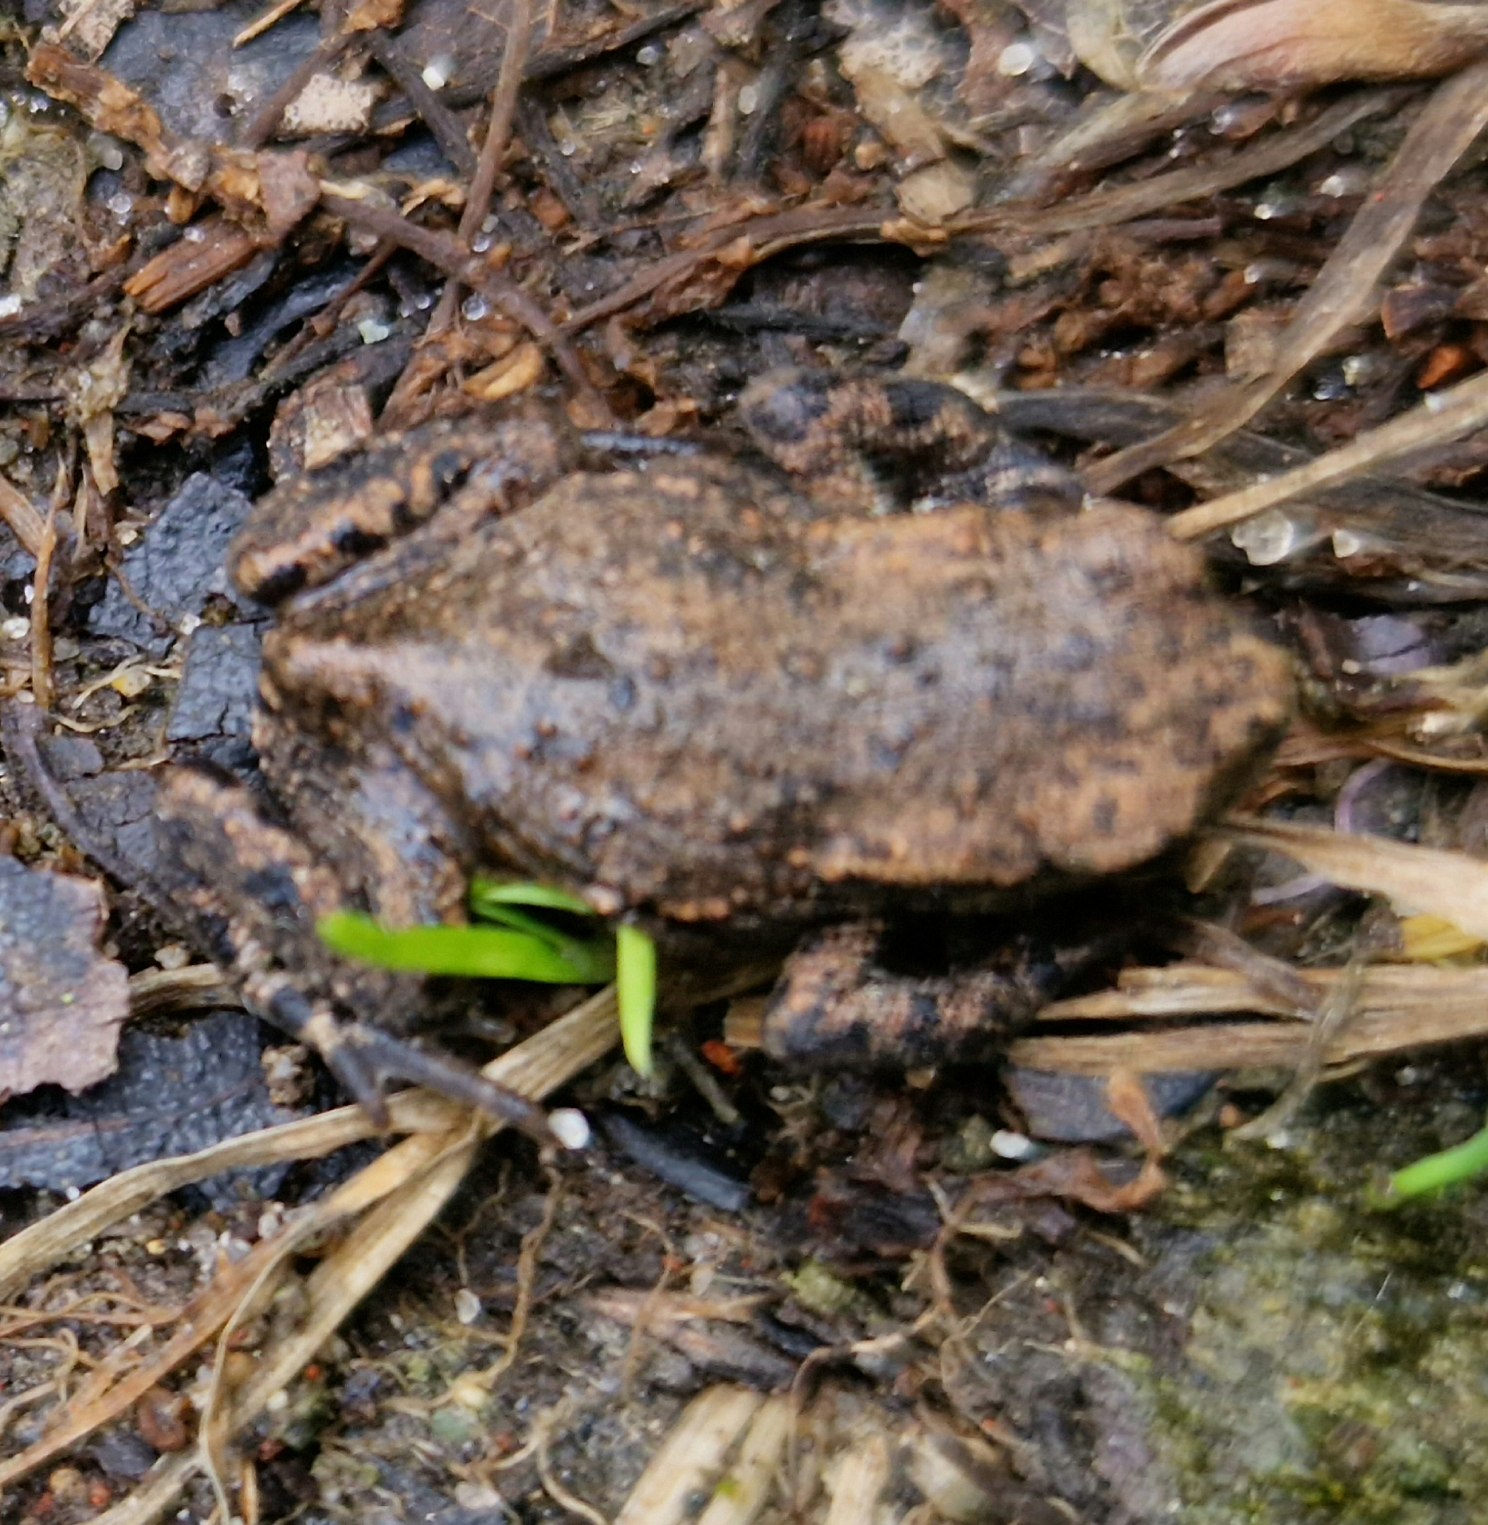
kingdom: Animalia
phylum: Chordata
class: Amphibia
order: Anura
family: Bufonidae
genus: Bufo
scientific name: Bufo bufo
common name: Skrubtudse
